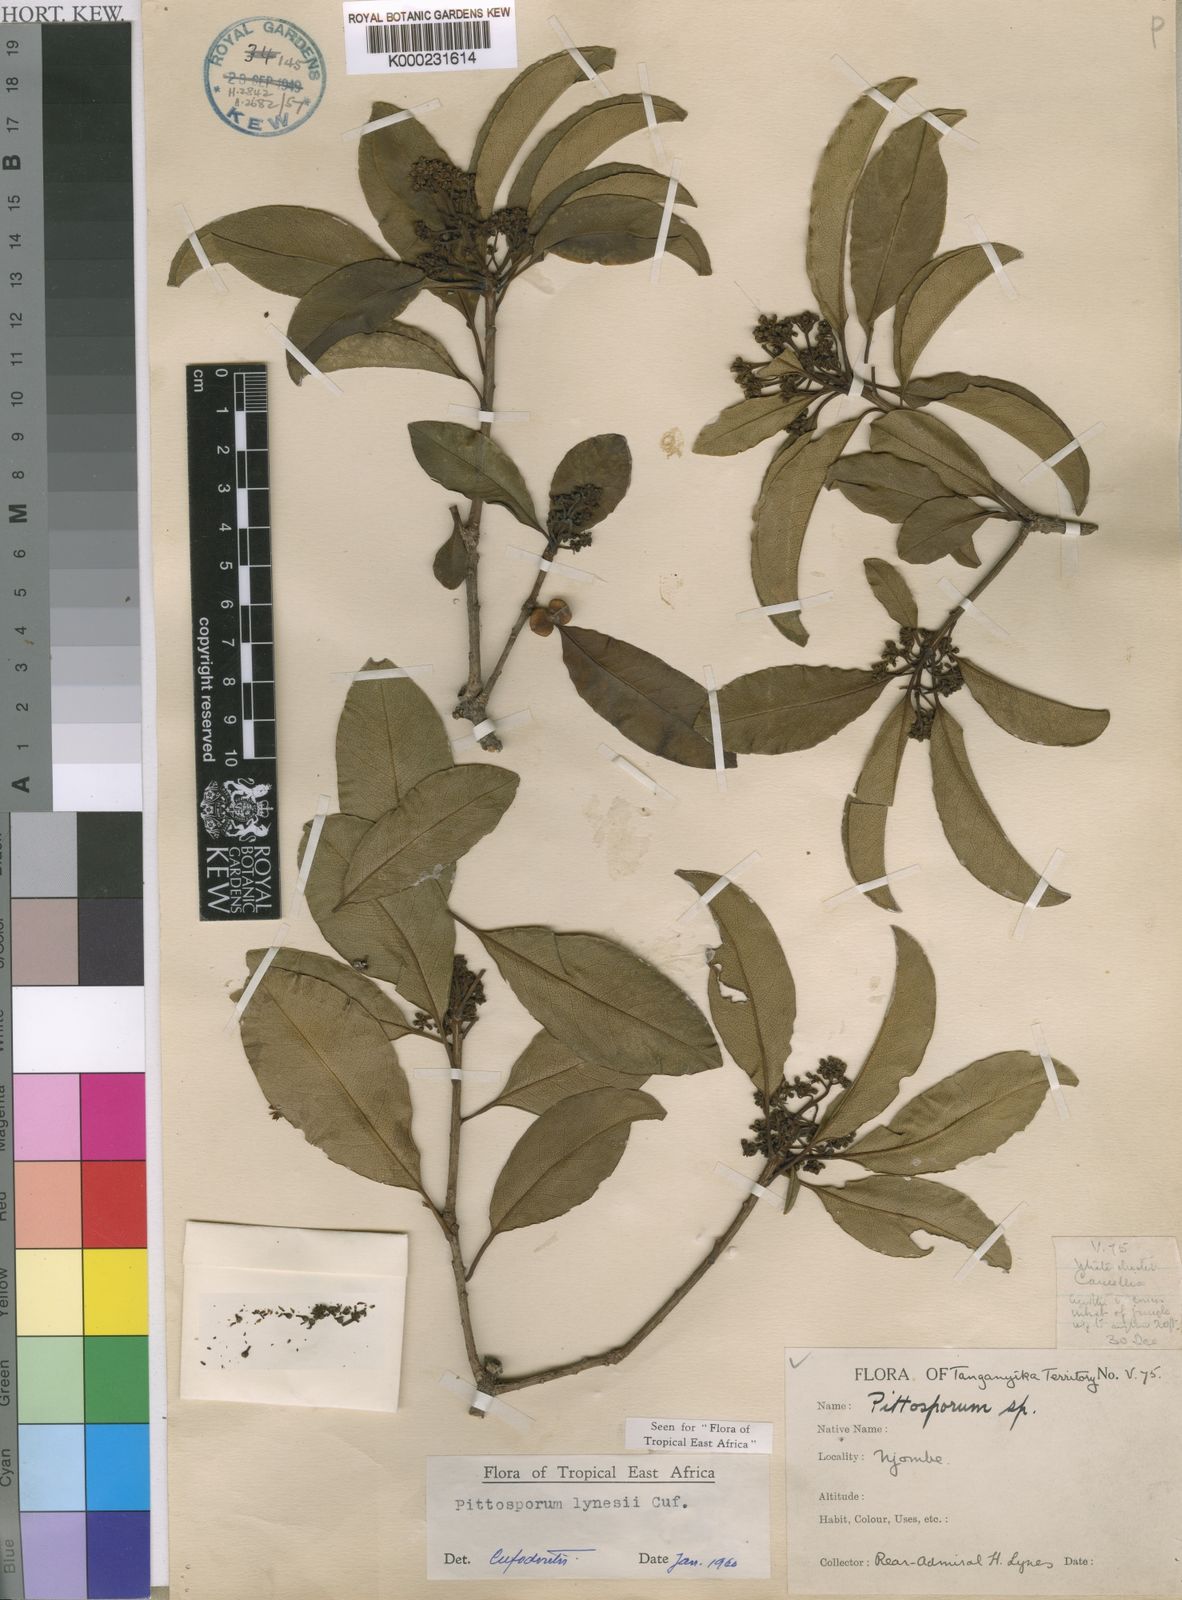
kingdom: Plantae
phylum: Tracheophyta
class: Magnoliopsida
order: Apiales
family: Pittosporaceae
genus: Pittosporum
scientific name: Pittosporum viridiflorum
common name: Cape cheesewood
